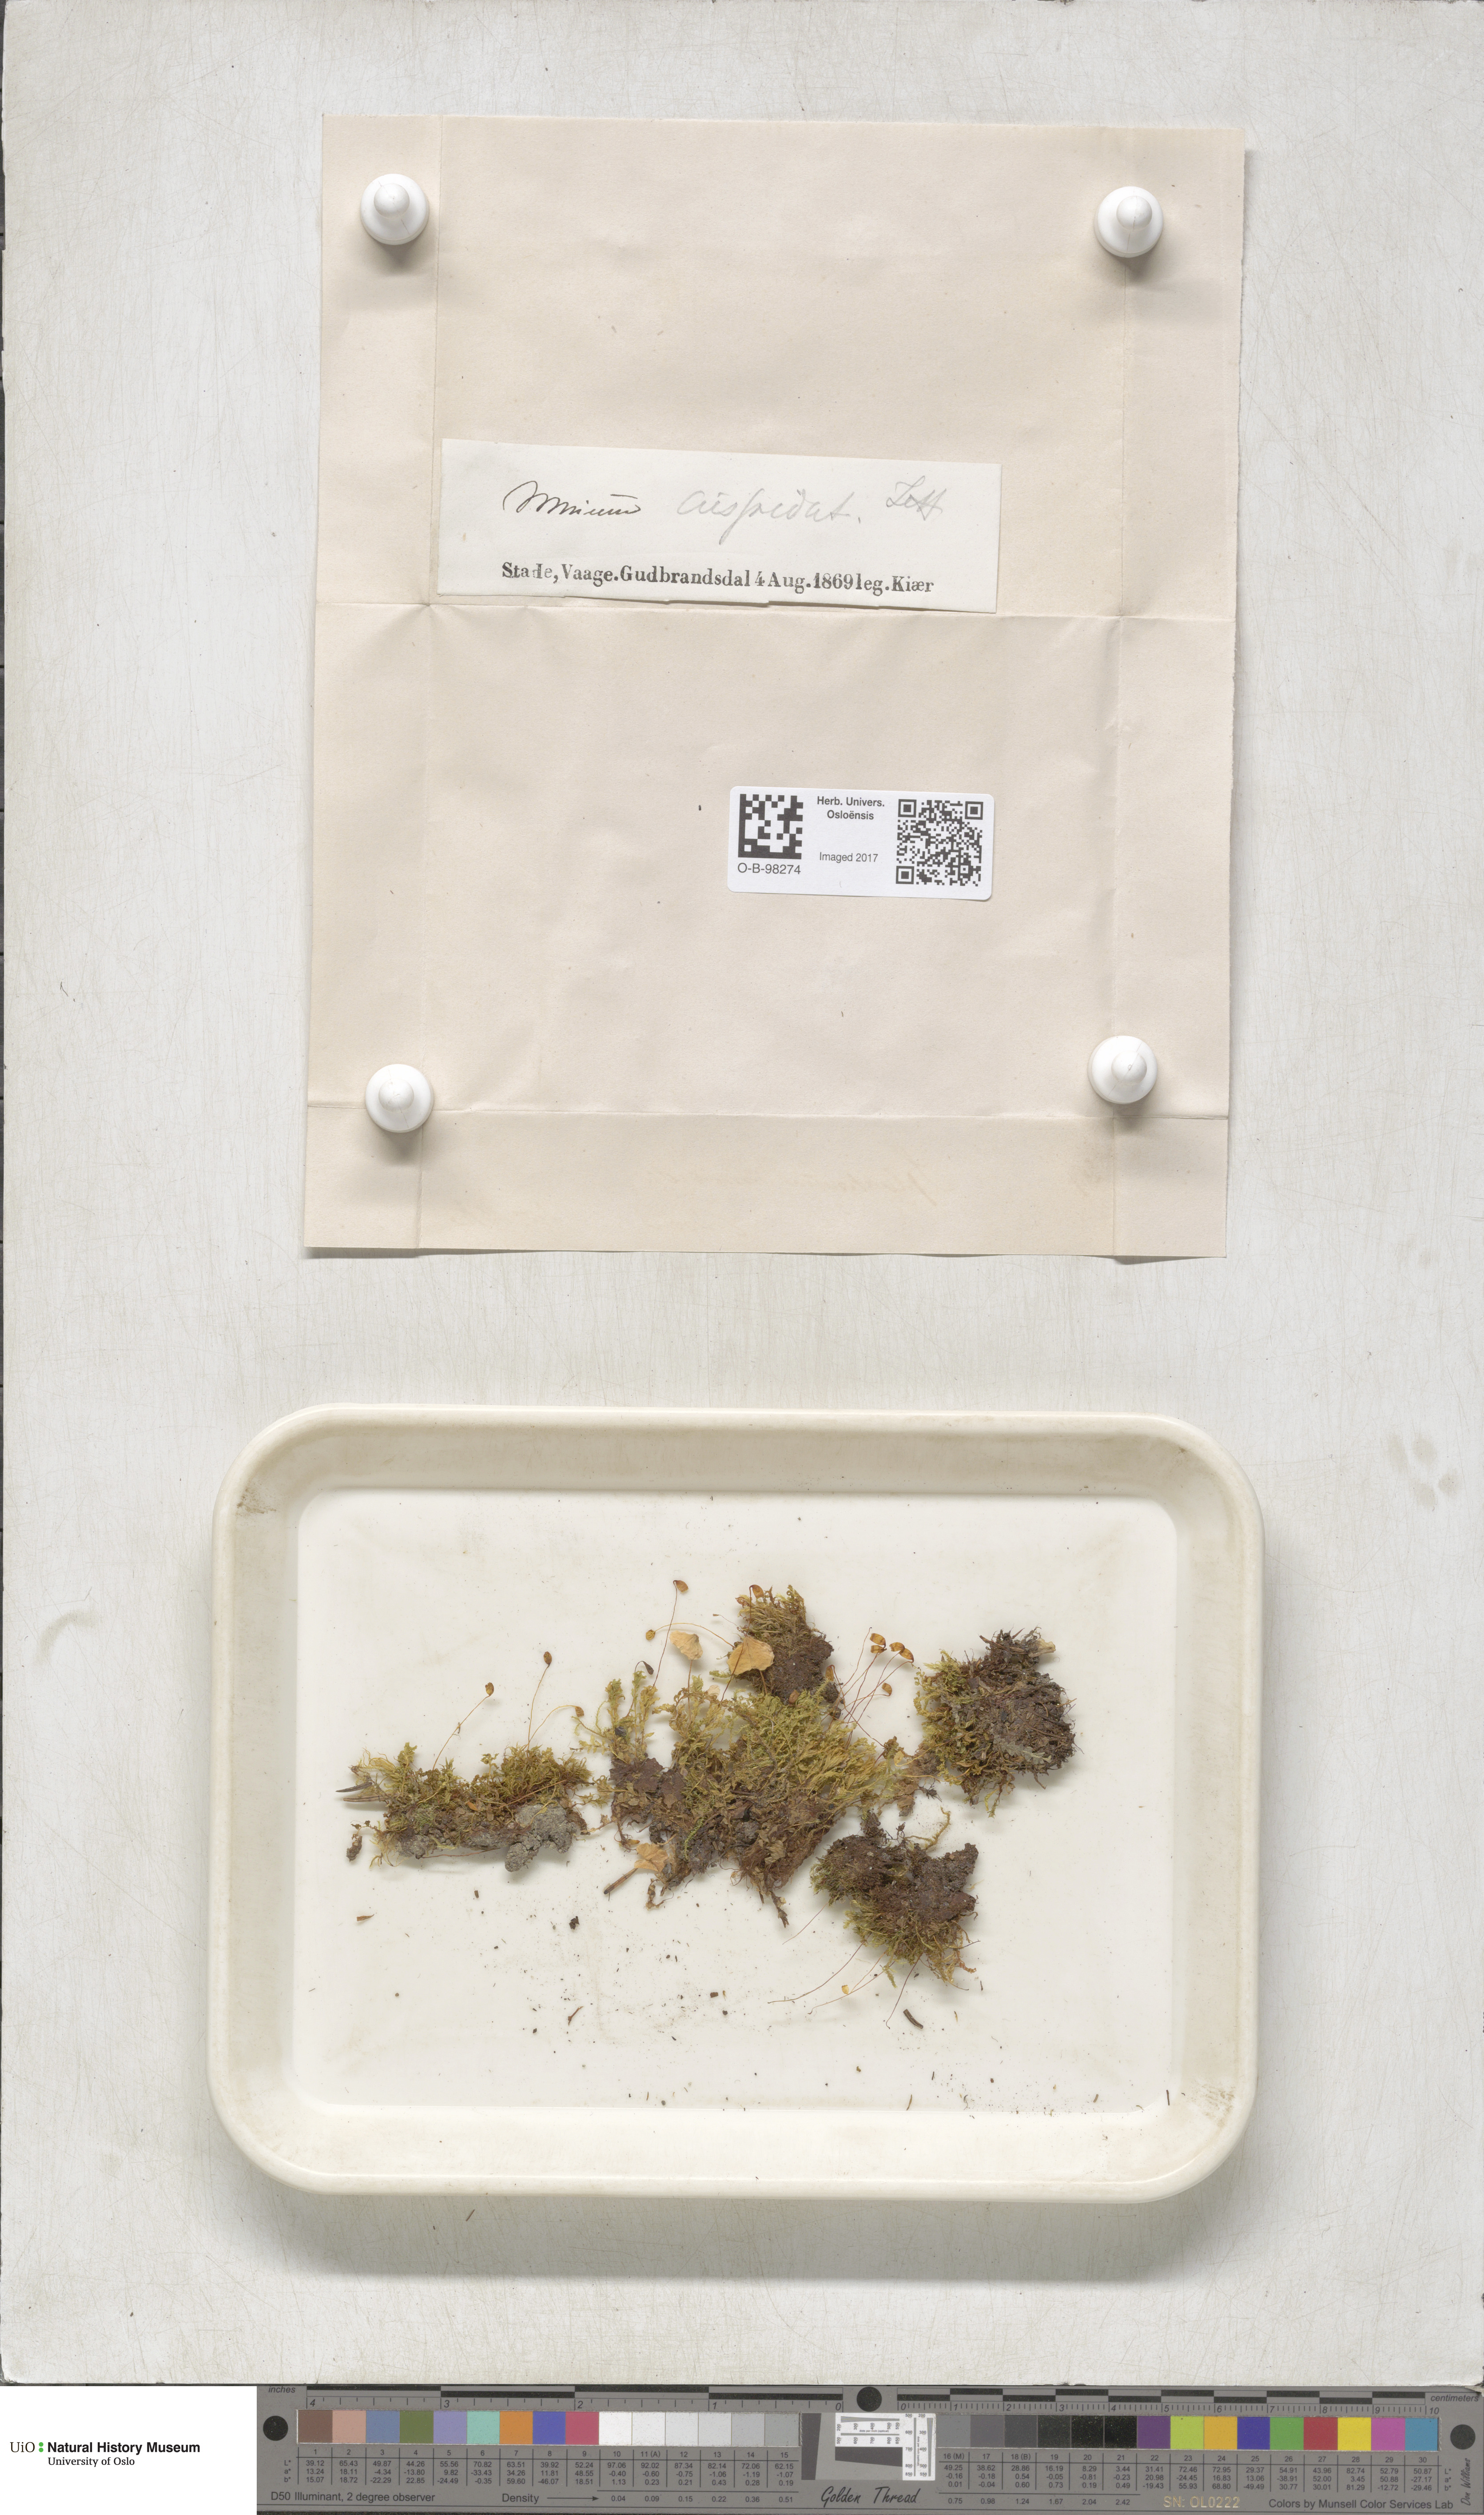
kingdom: Plantae
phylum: Bryophyta
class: Bryopsida
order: Bryales
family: Mniaceae
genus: Plagiomnium
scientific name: Plagiomnium cuspidatum
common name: Woodsy leafy moss
